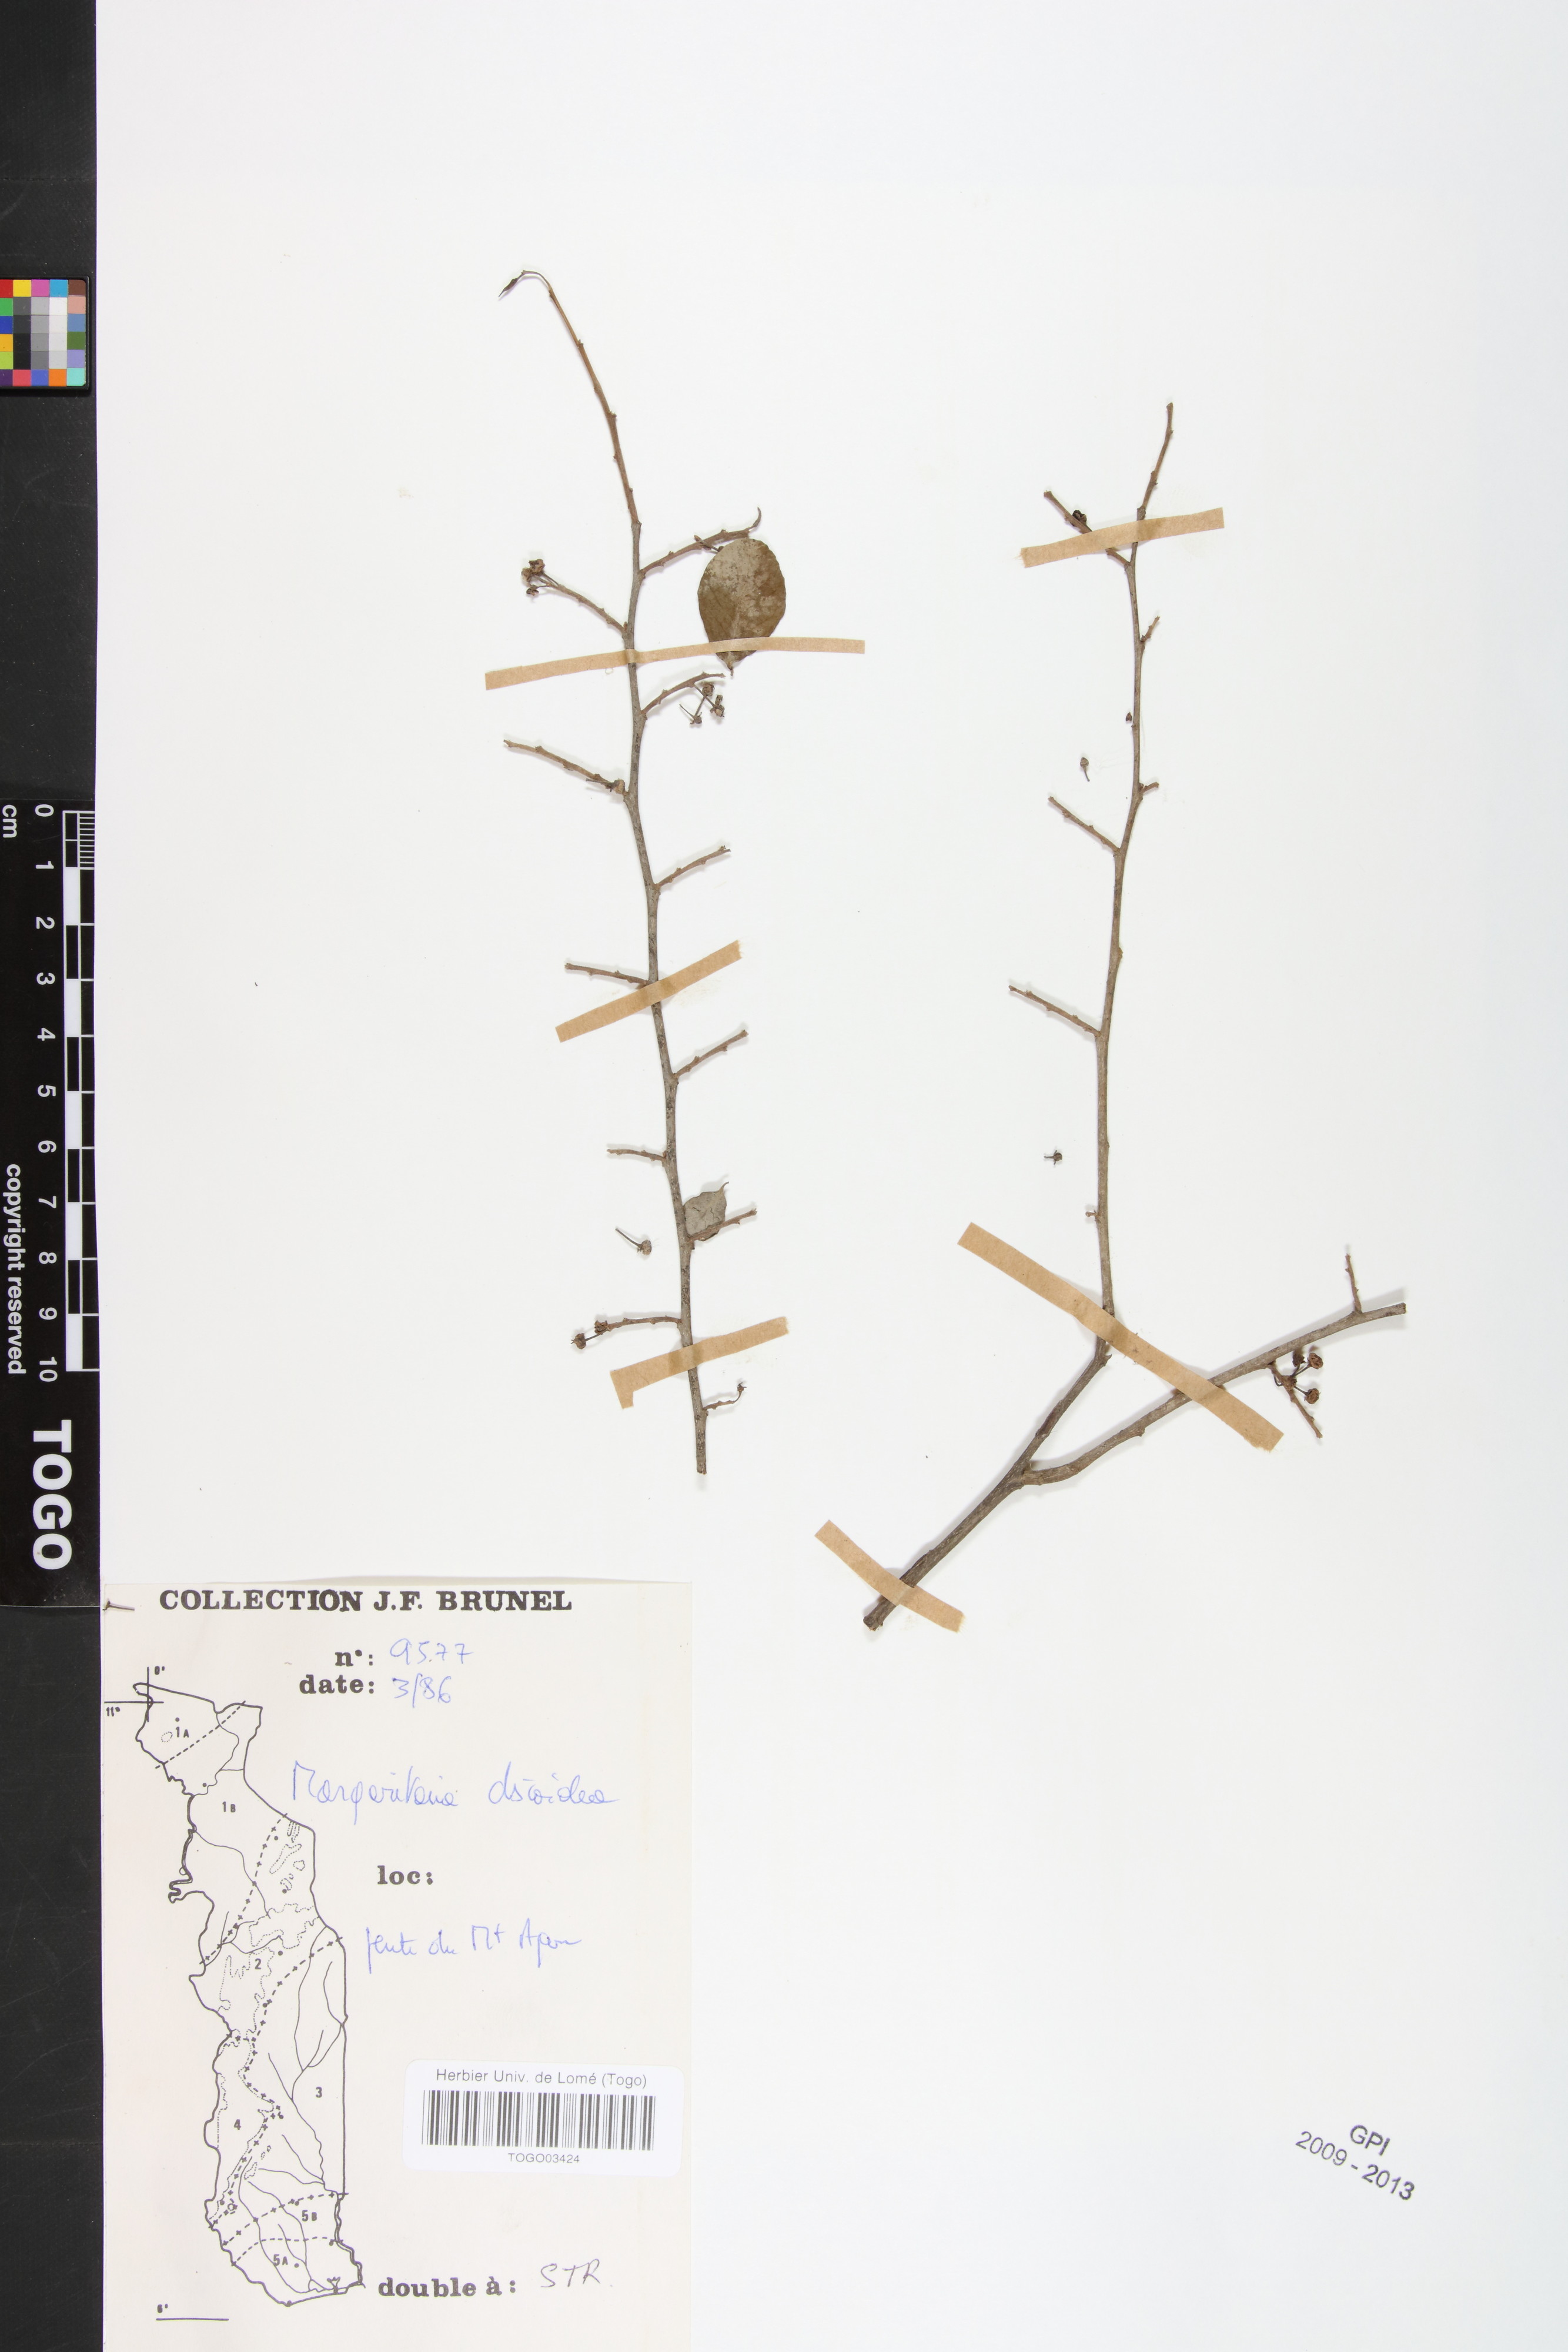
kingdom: Plantae
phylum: Tracheophyta
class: Magnoliopsida
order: Malpighiales
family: Phyllanthaceae
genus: Margaritaria
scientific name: Margaritaria discoidea
